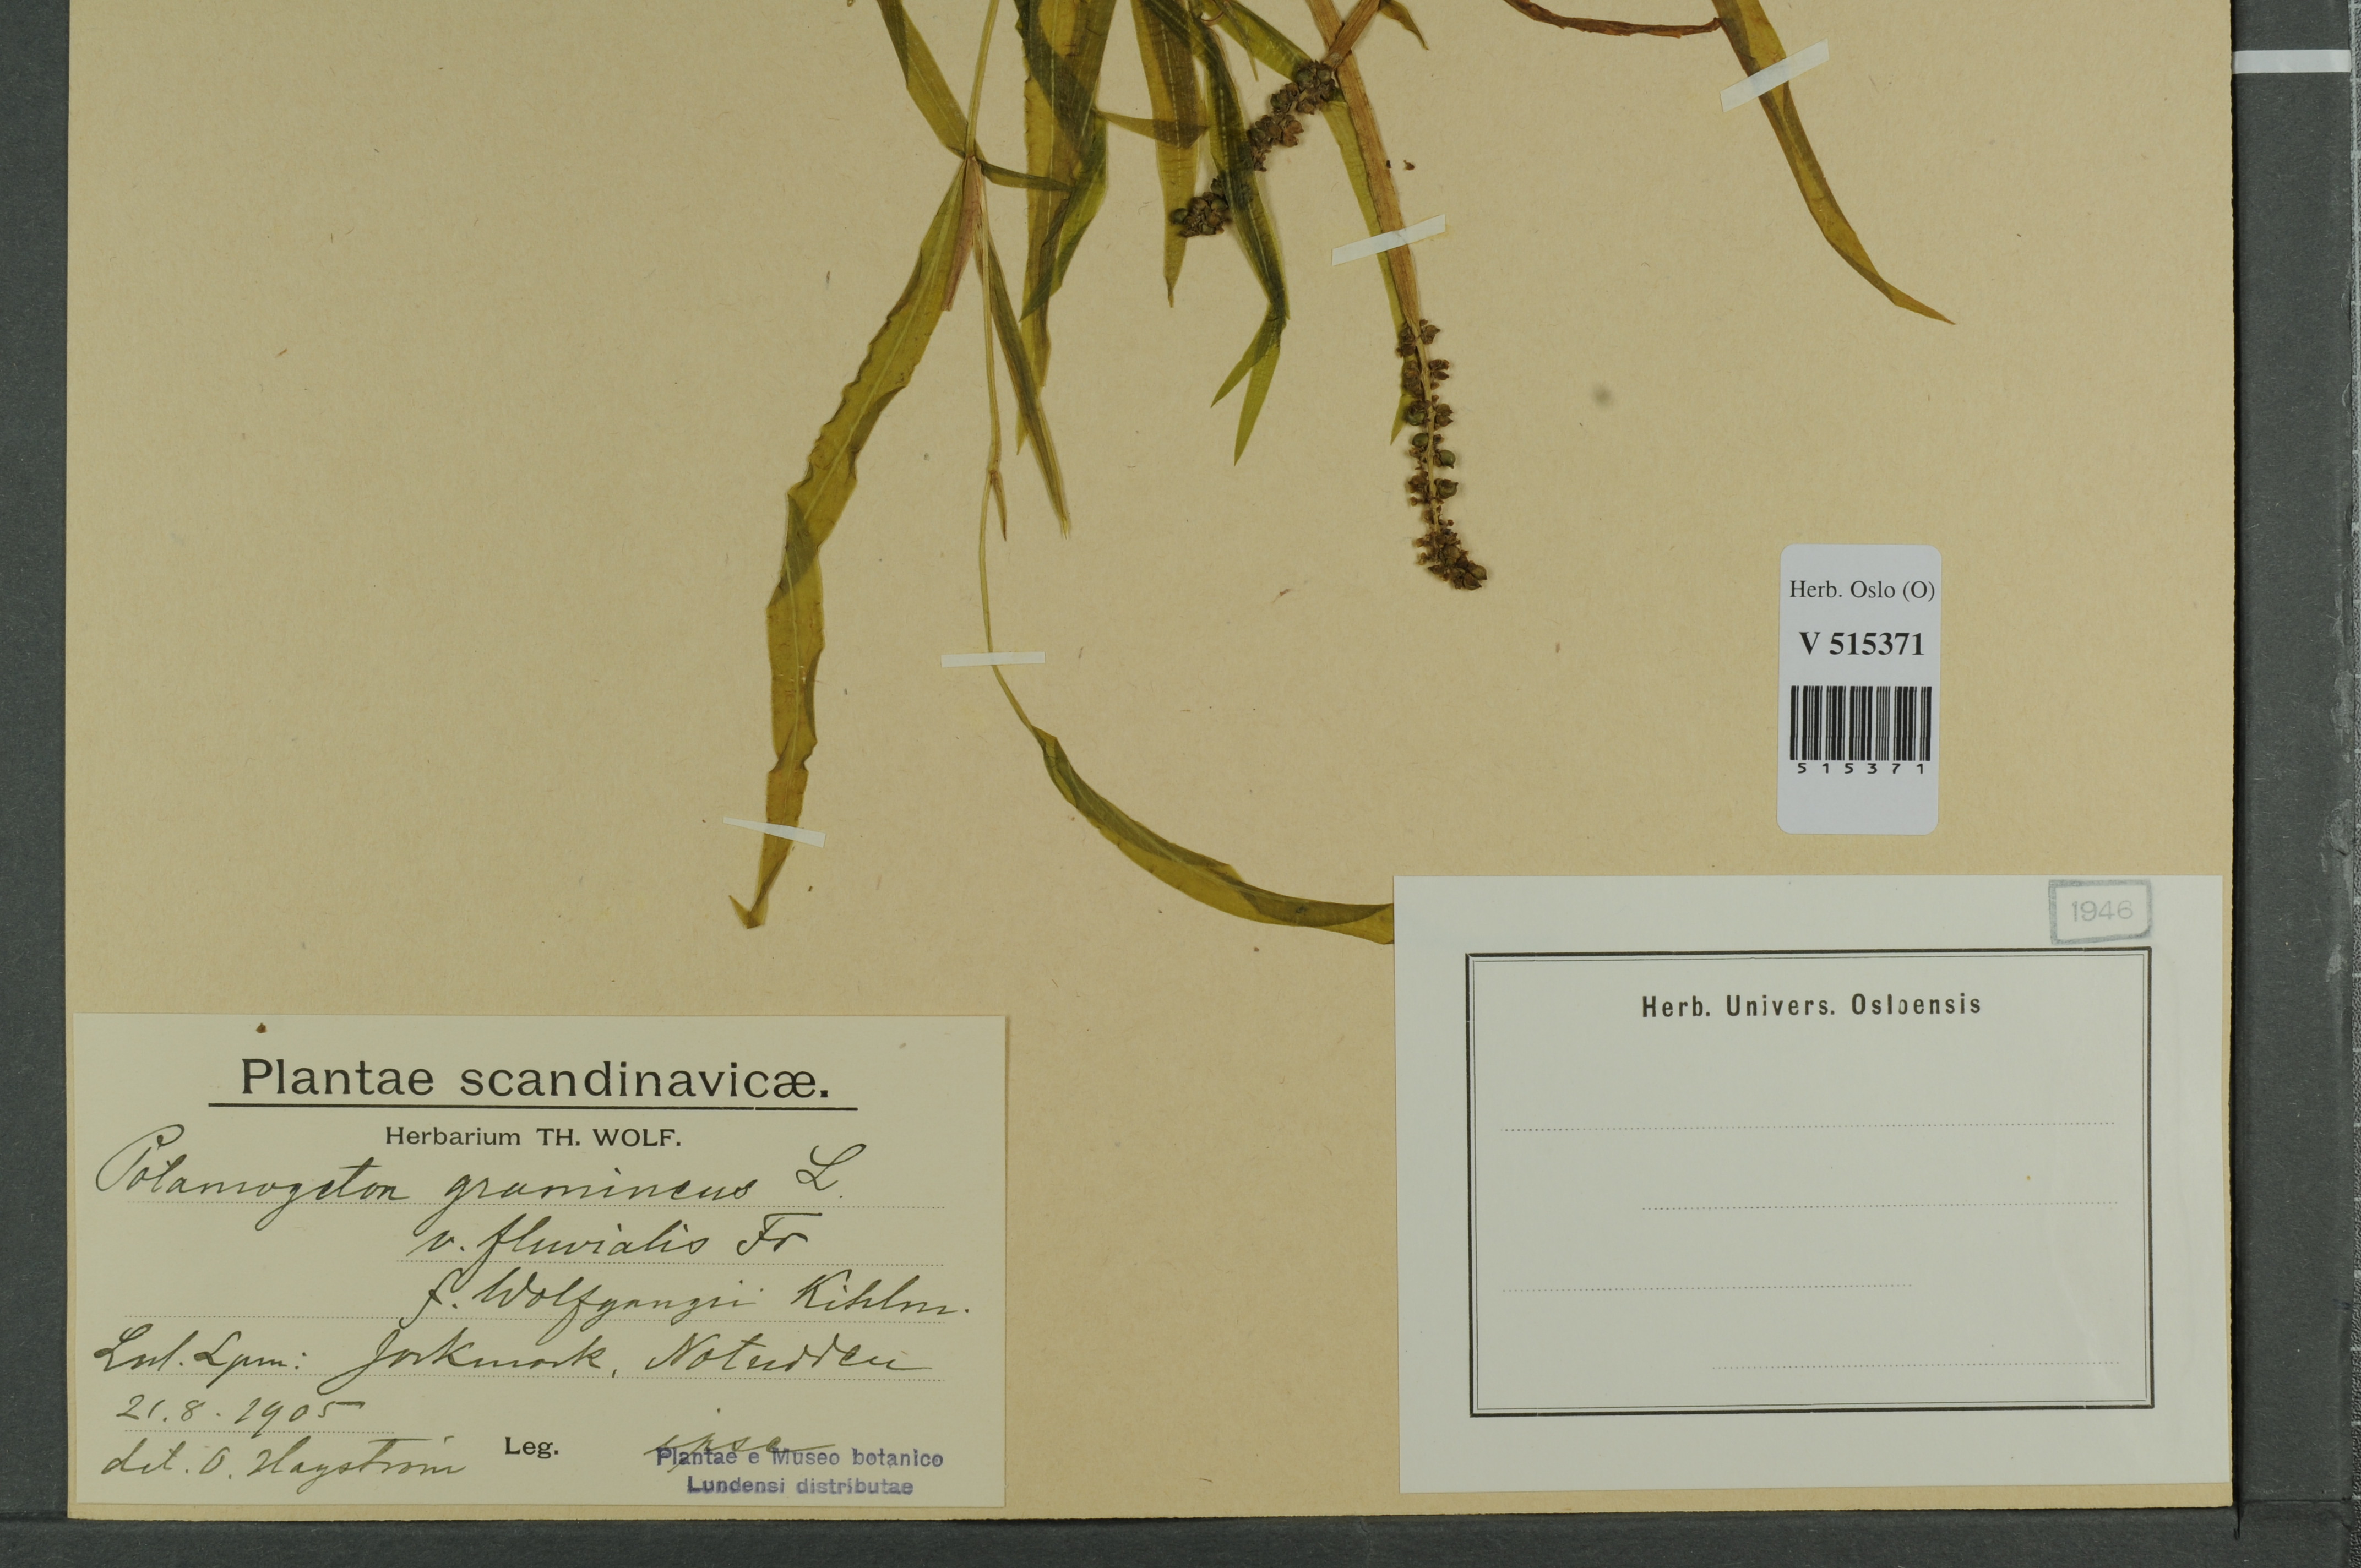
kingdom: Plantae
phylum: Tracheophyta
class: Liliopsida
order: Alismatales
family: Potamogetonaceae
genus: Potamogeton
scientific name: Potamogeton gramineus
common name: Various-leaved pondweed
